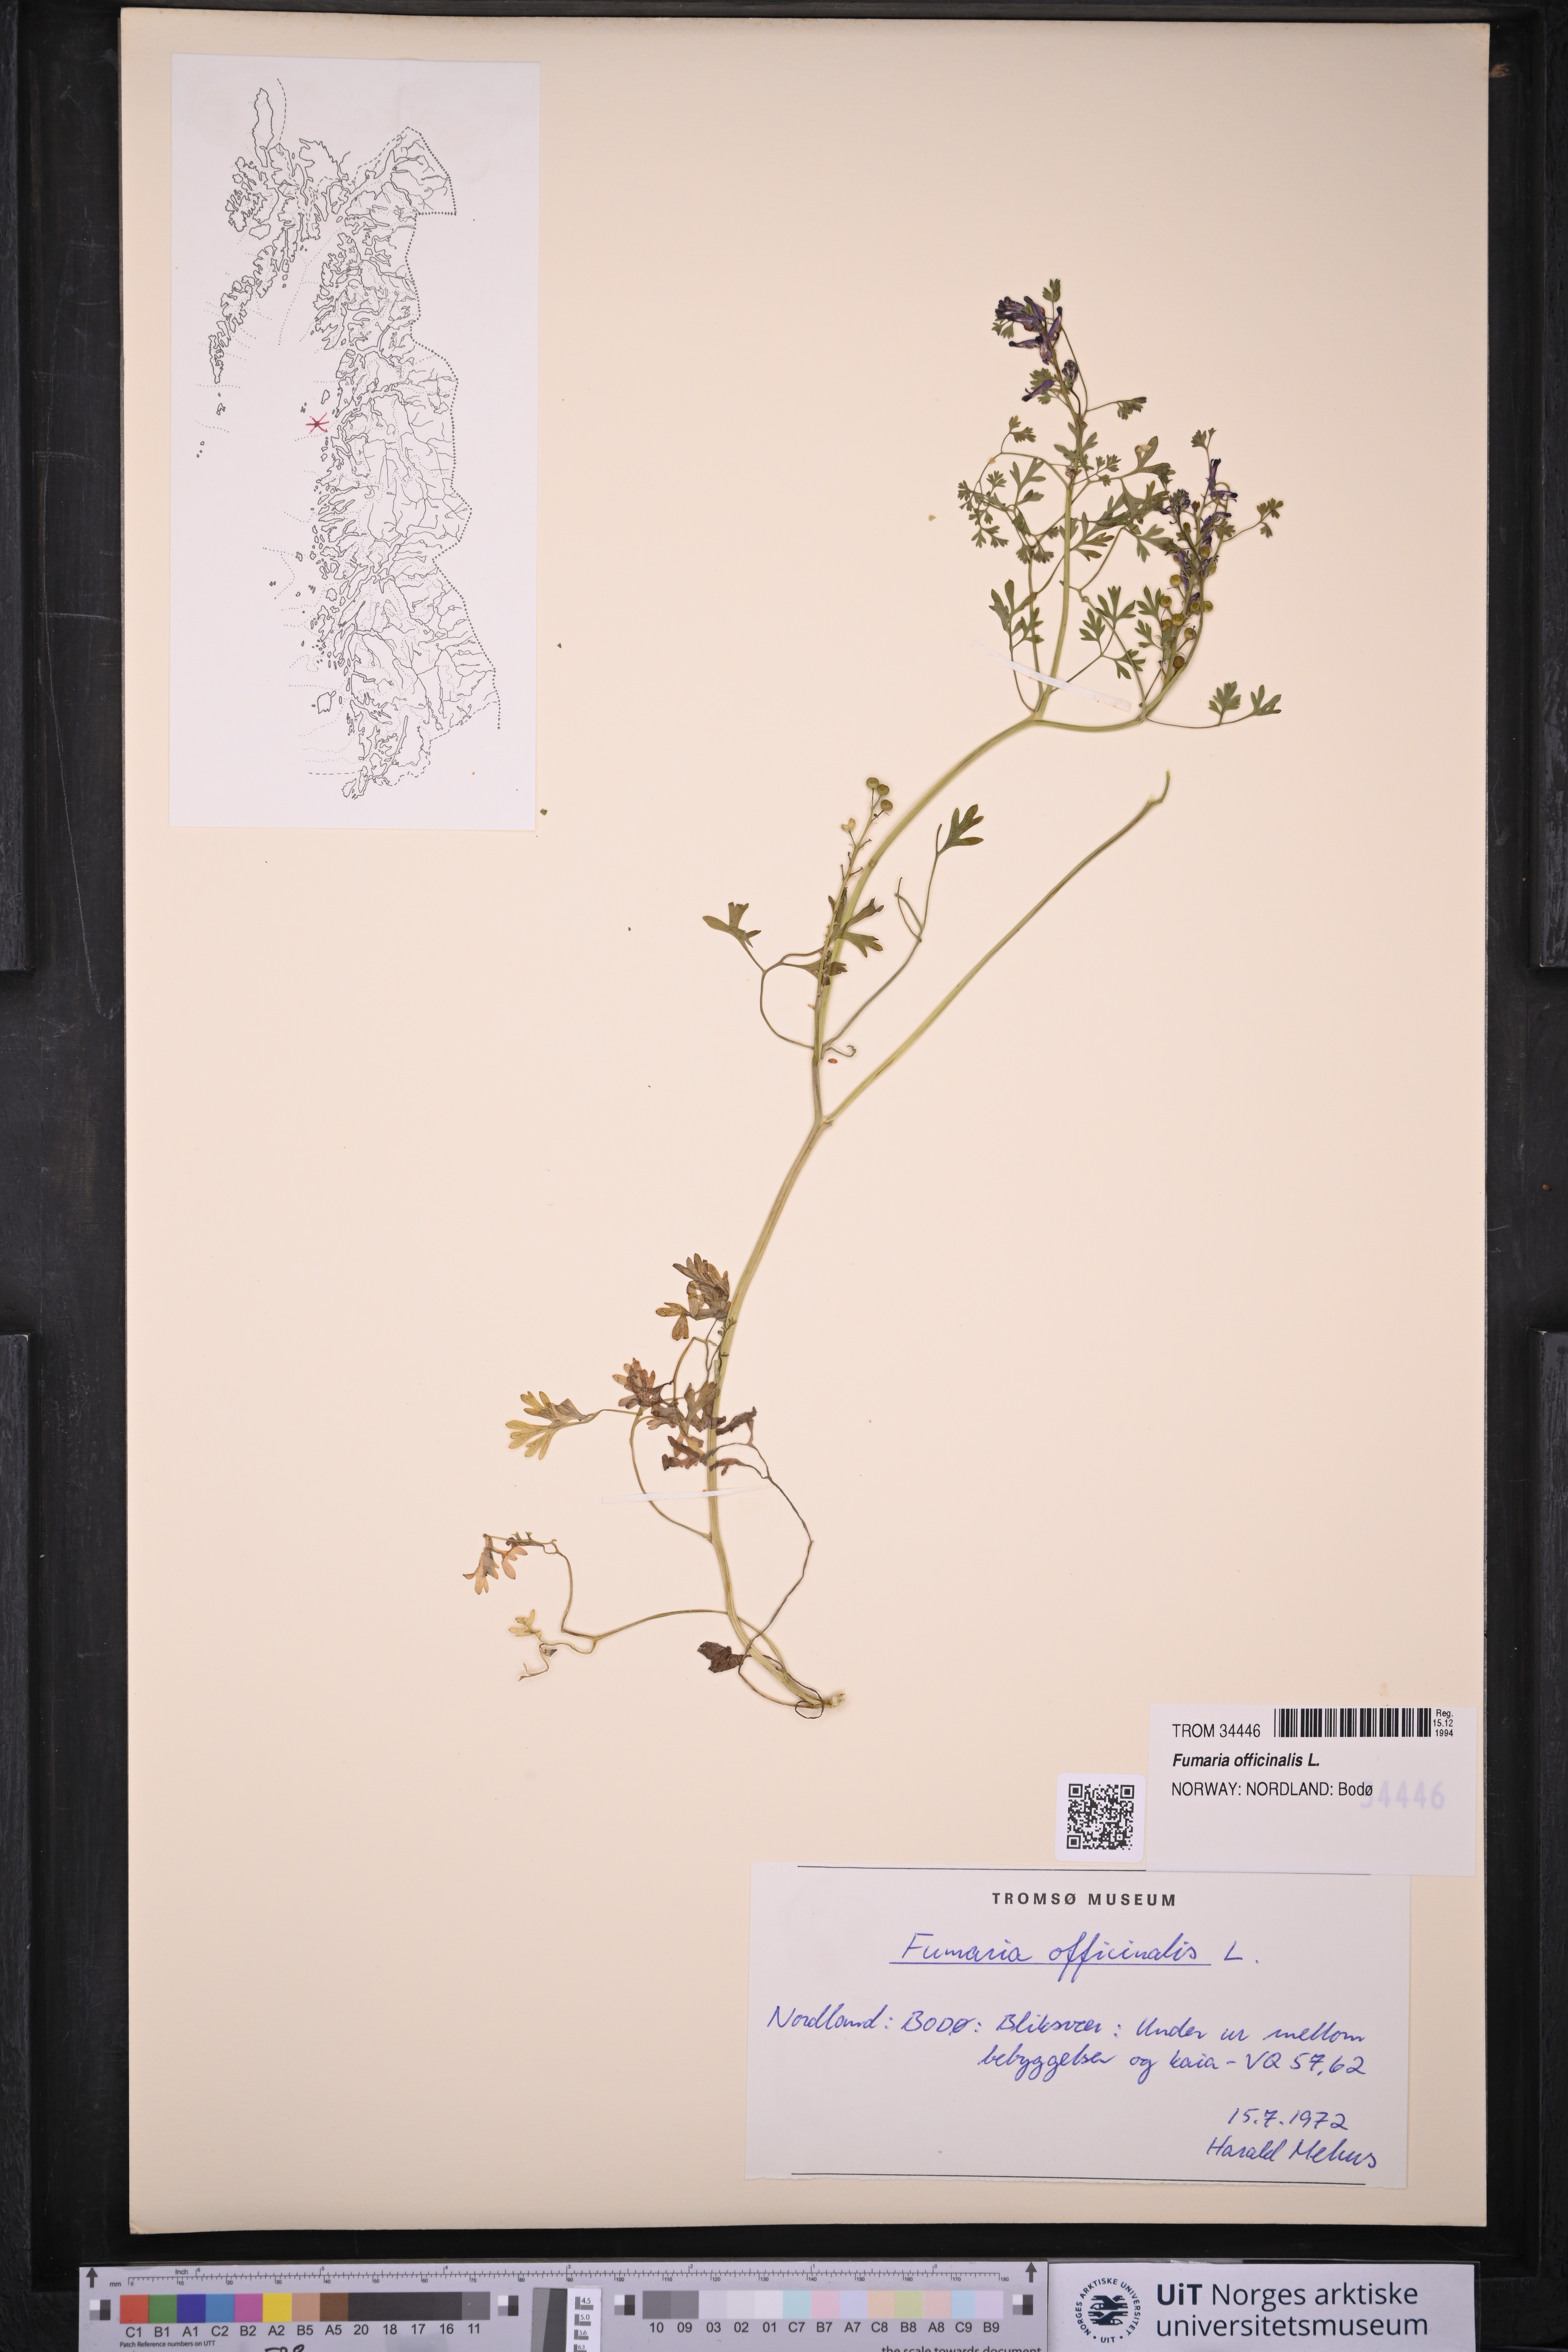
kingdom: Plantae
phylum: Tracheophyta
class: Magnoliopsida
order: Ranunculales
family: Papaveraceae
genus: Fumaria
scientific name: Fumaria officinalis
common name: Common fumitory
